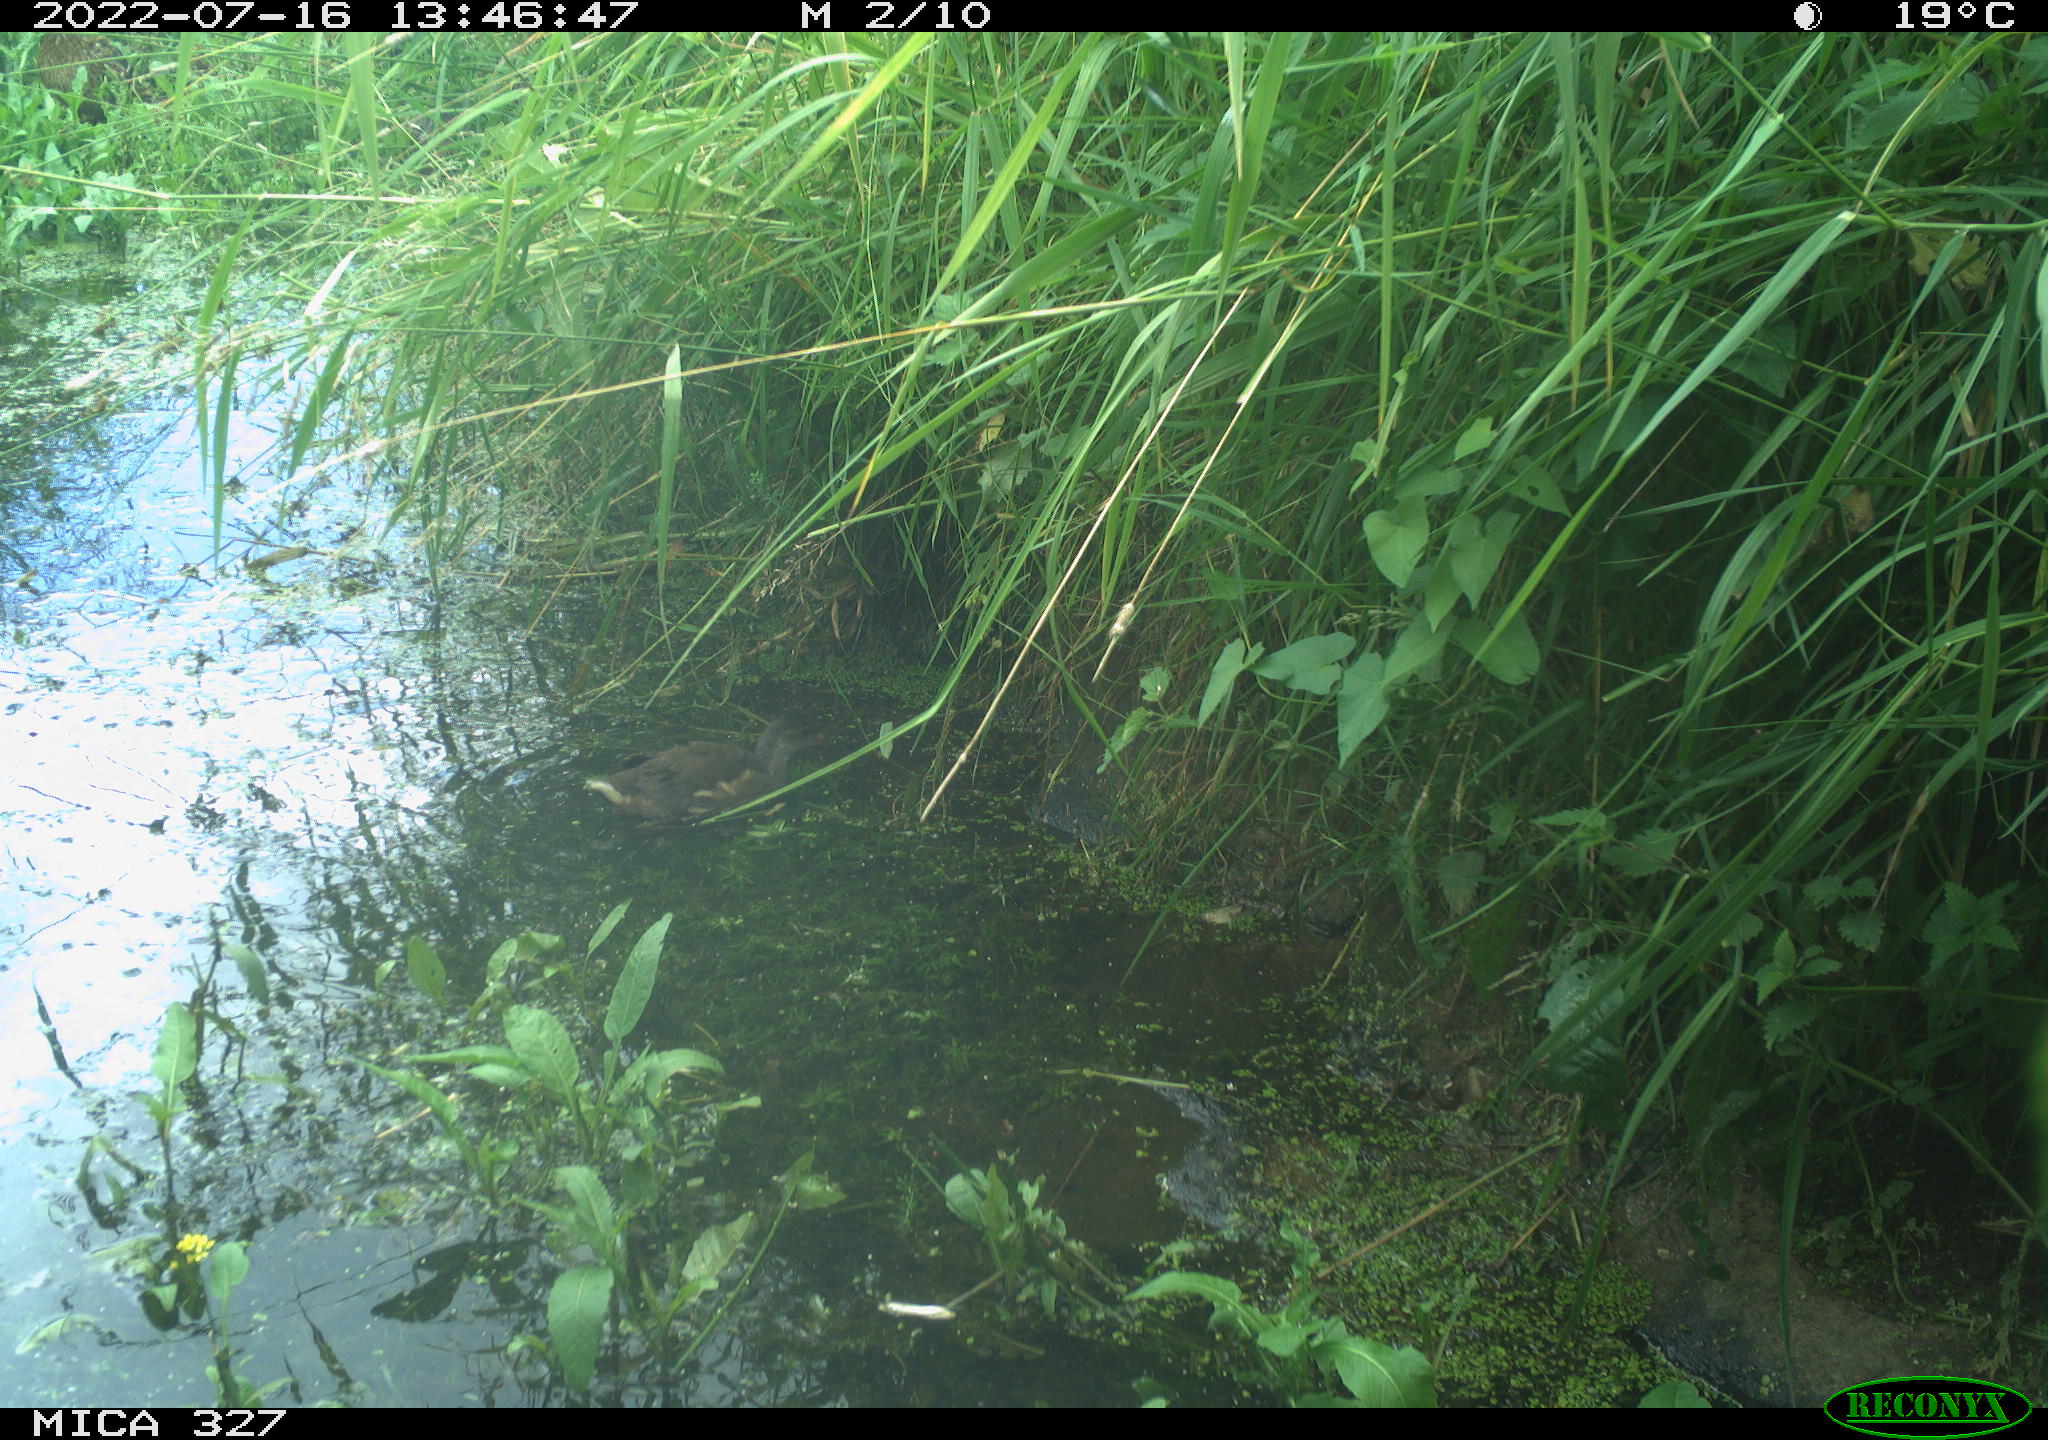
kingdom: Animalia
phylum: Chordata
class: Aves
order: Gruiformes
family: Rallidae
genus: Gallinula
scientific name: Gallinula chloropus
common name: Common moorhen
